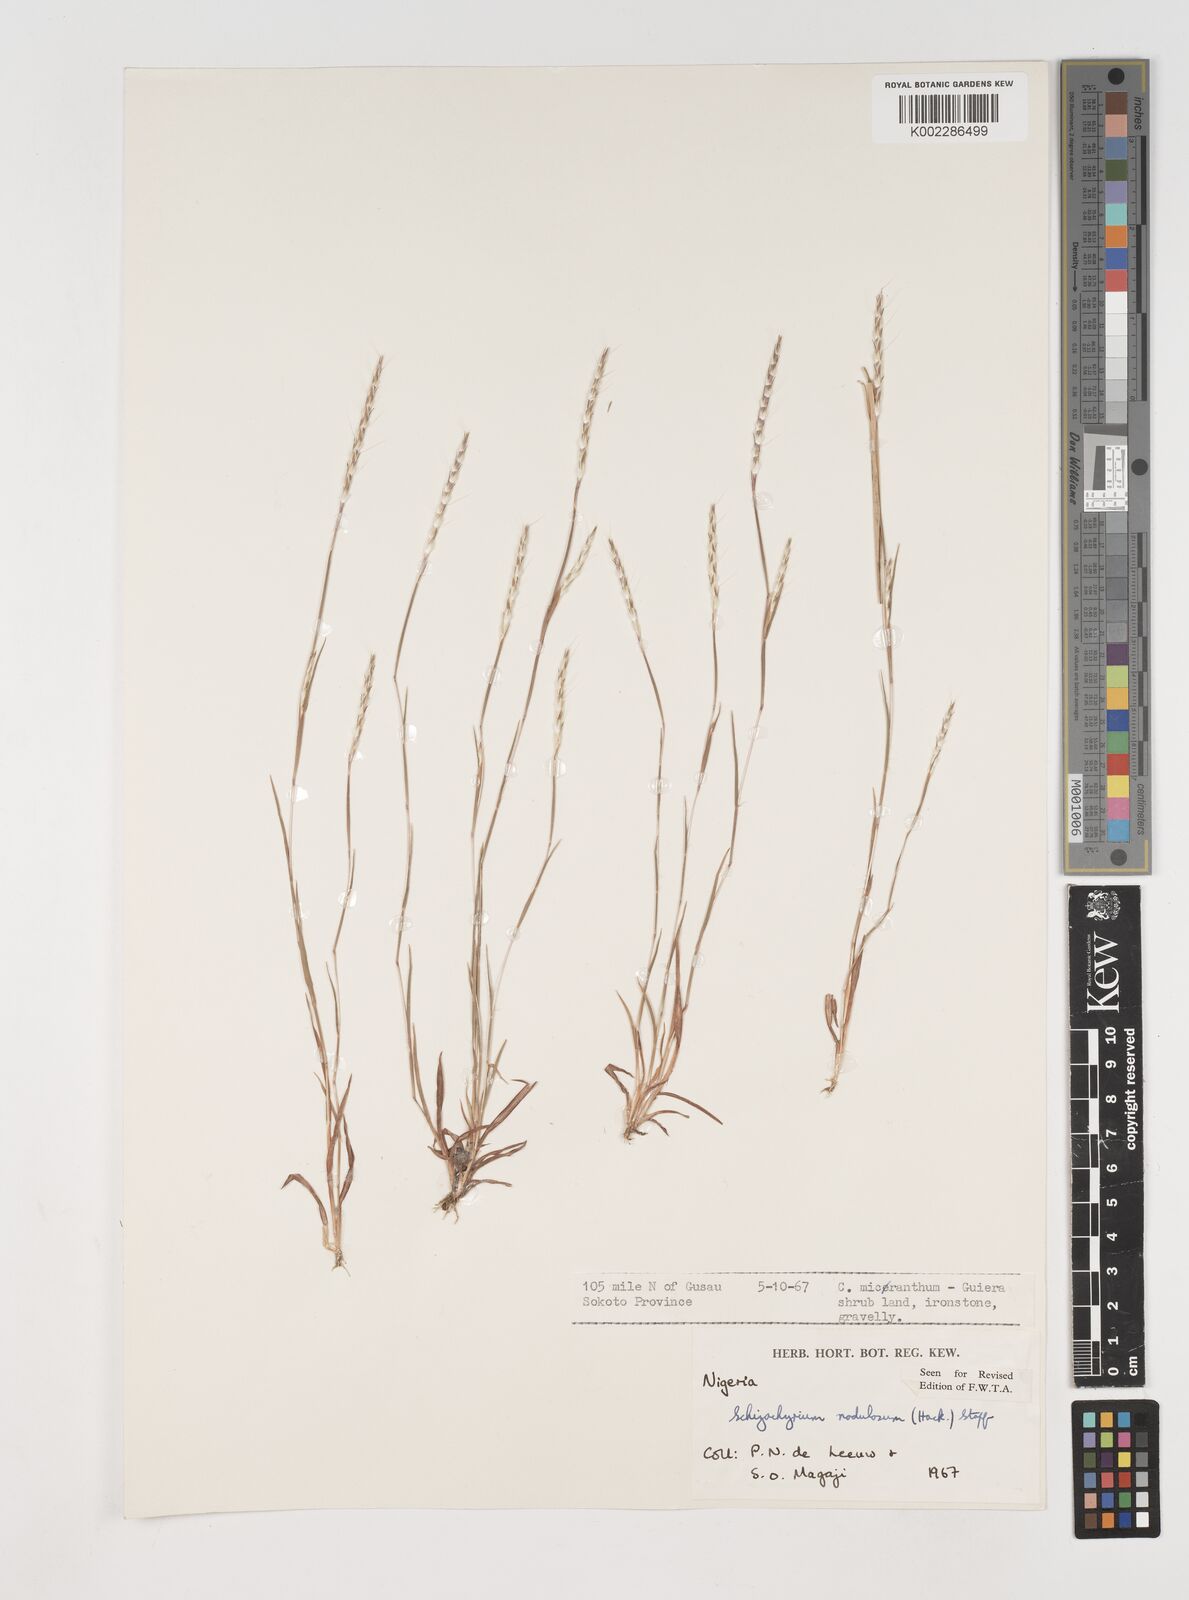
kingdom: Plantae
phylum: Tracheophyta
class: Liliopsida
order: Poales
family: Poaceae
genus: Schizachyrium
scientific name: Schizachyrium nodulosum
